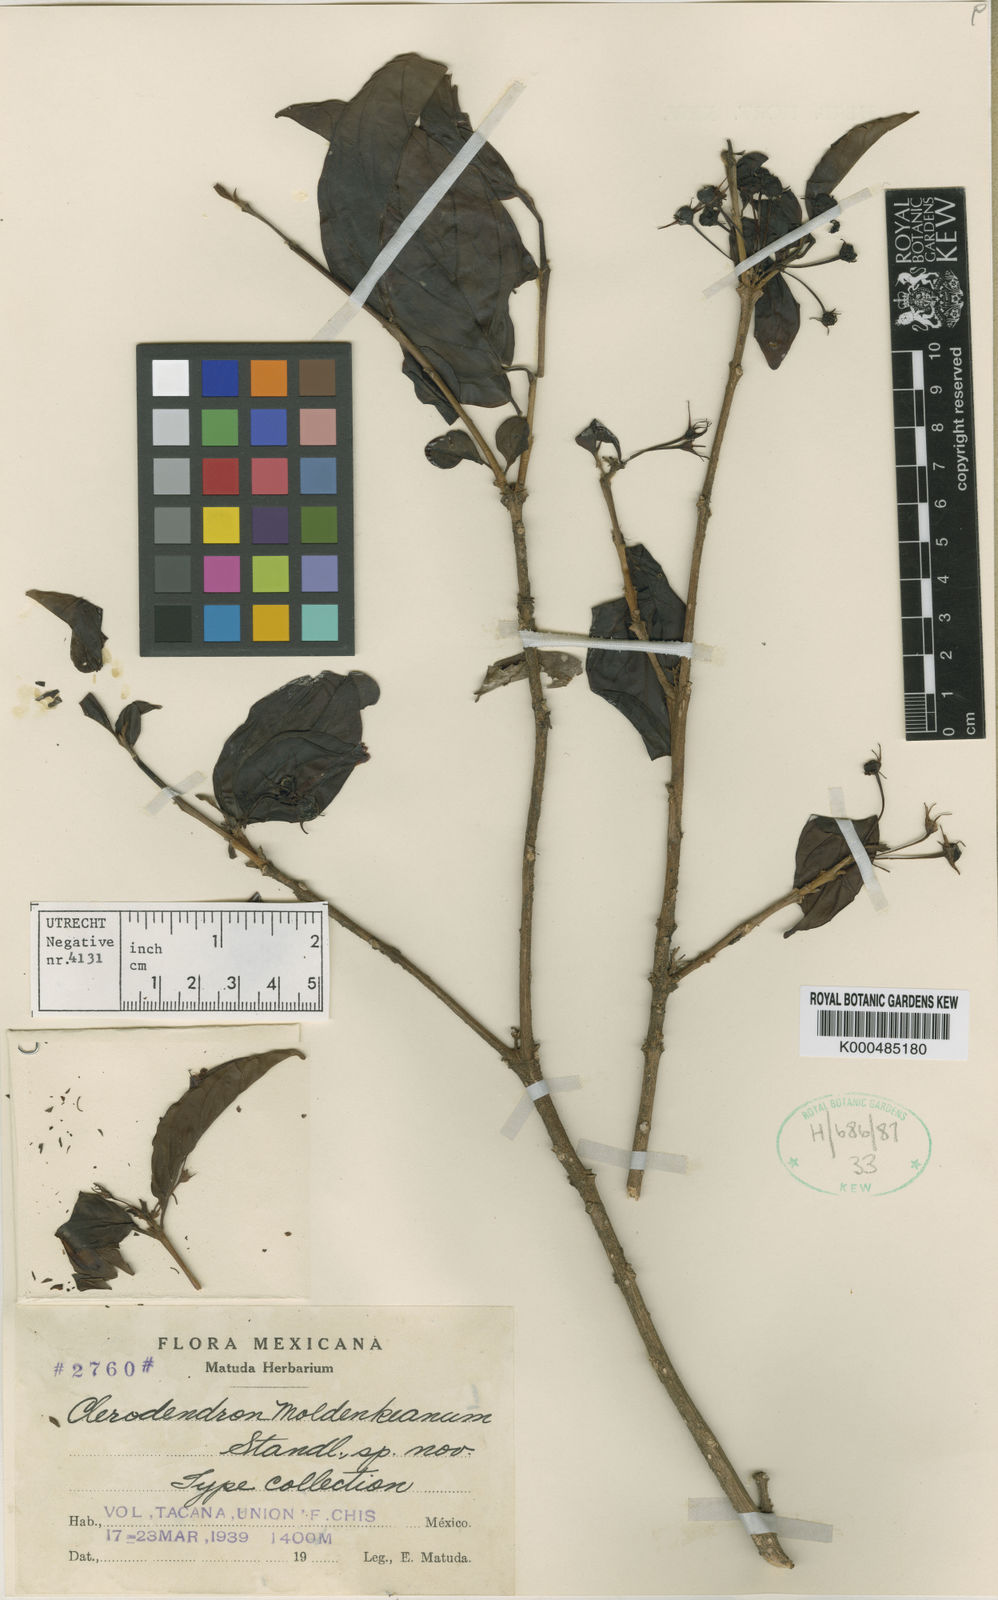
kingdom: Plantae
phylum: Tracheophyta
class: Magnoliopsida
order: Lamiales
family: Schlegeliaceae
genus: Gibsoniothamnus
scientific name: Gibsoniothamnus cornutus
